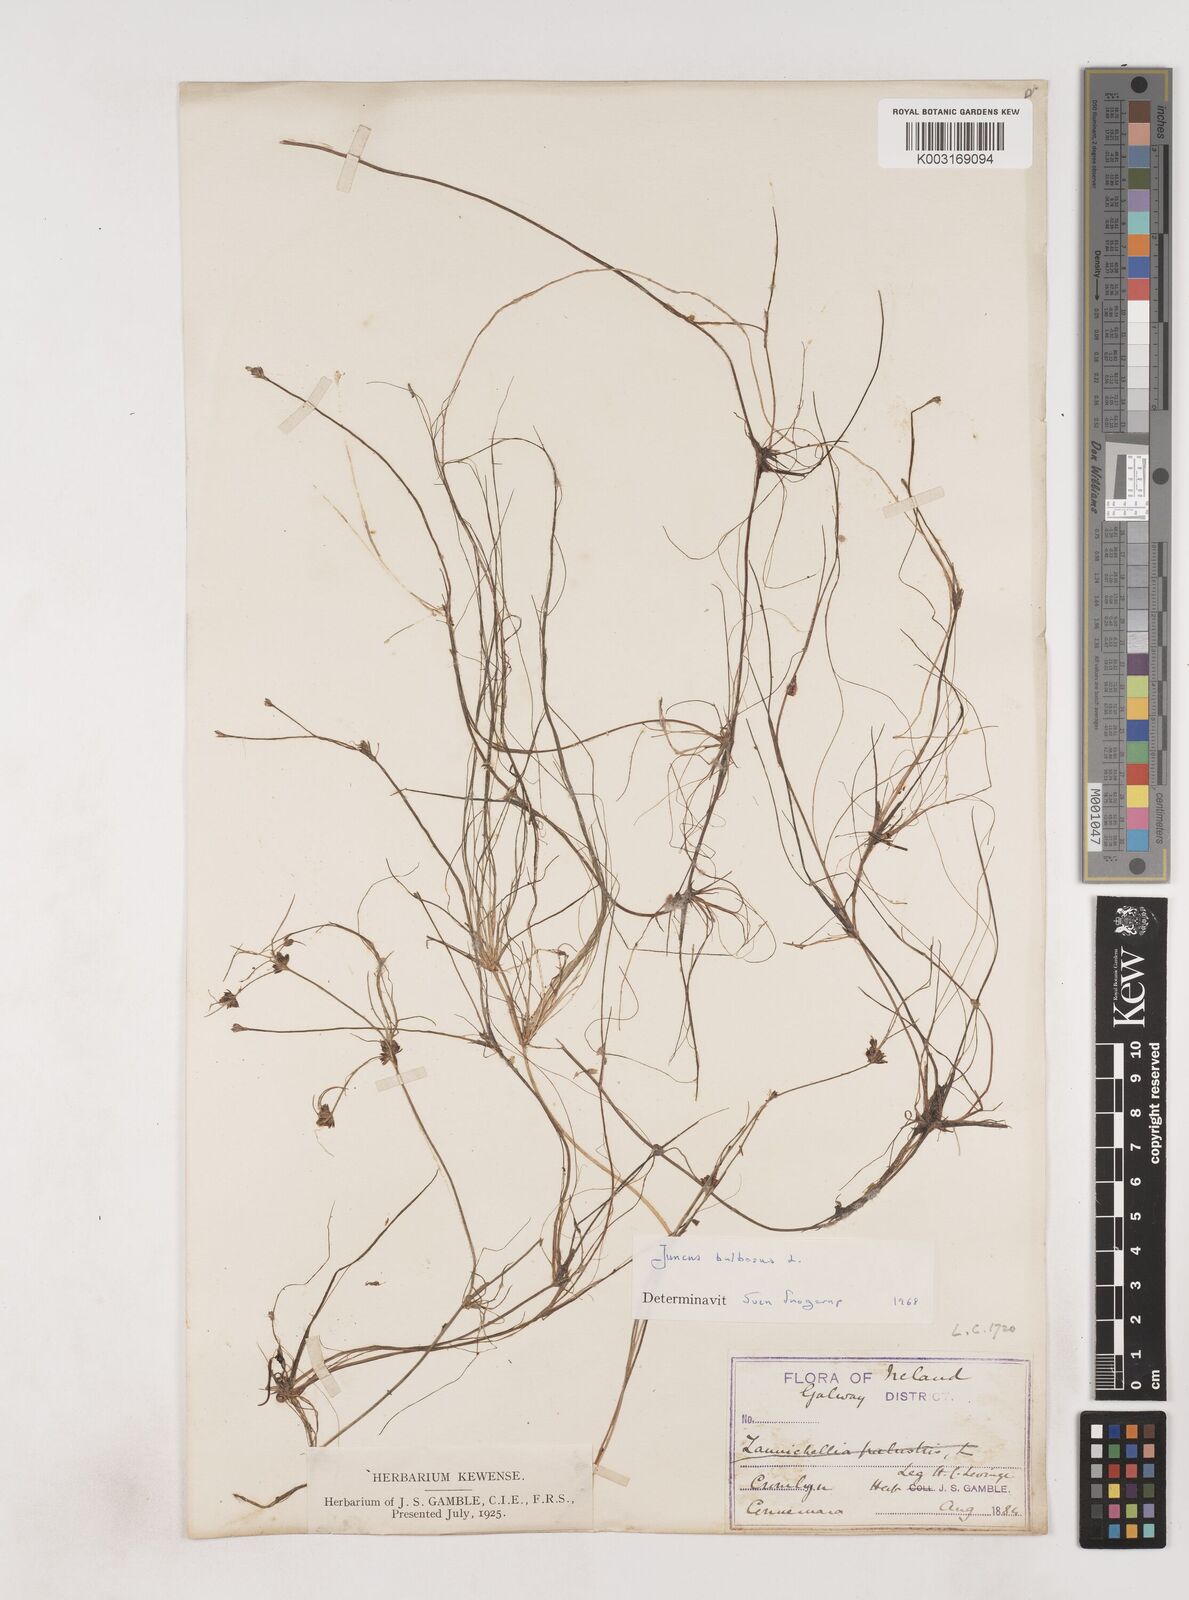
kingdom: Plantae
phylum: Tracheophyta
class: Liliopsida
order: Poales
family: Juncaceae
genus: Juncus
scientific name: Juncus bulbosus
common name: Bulbous rush
